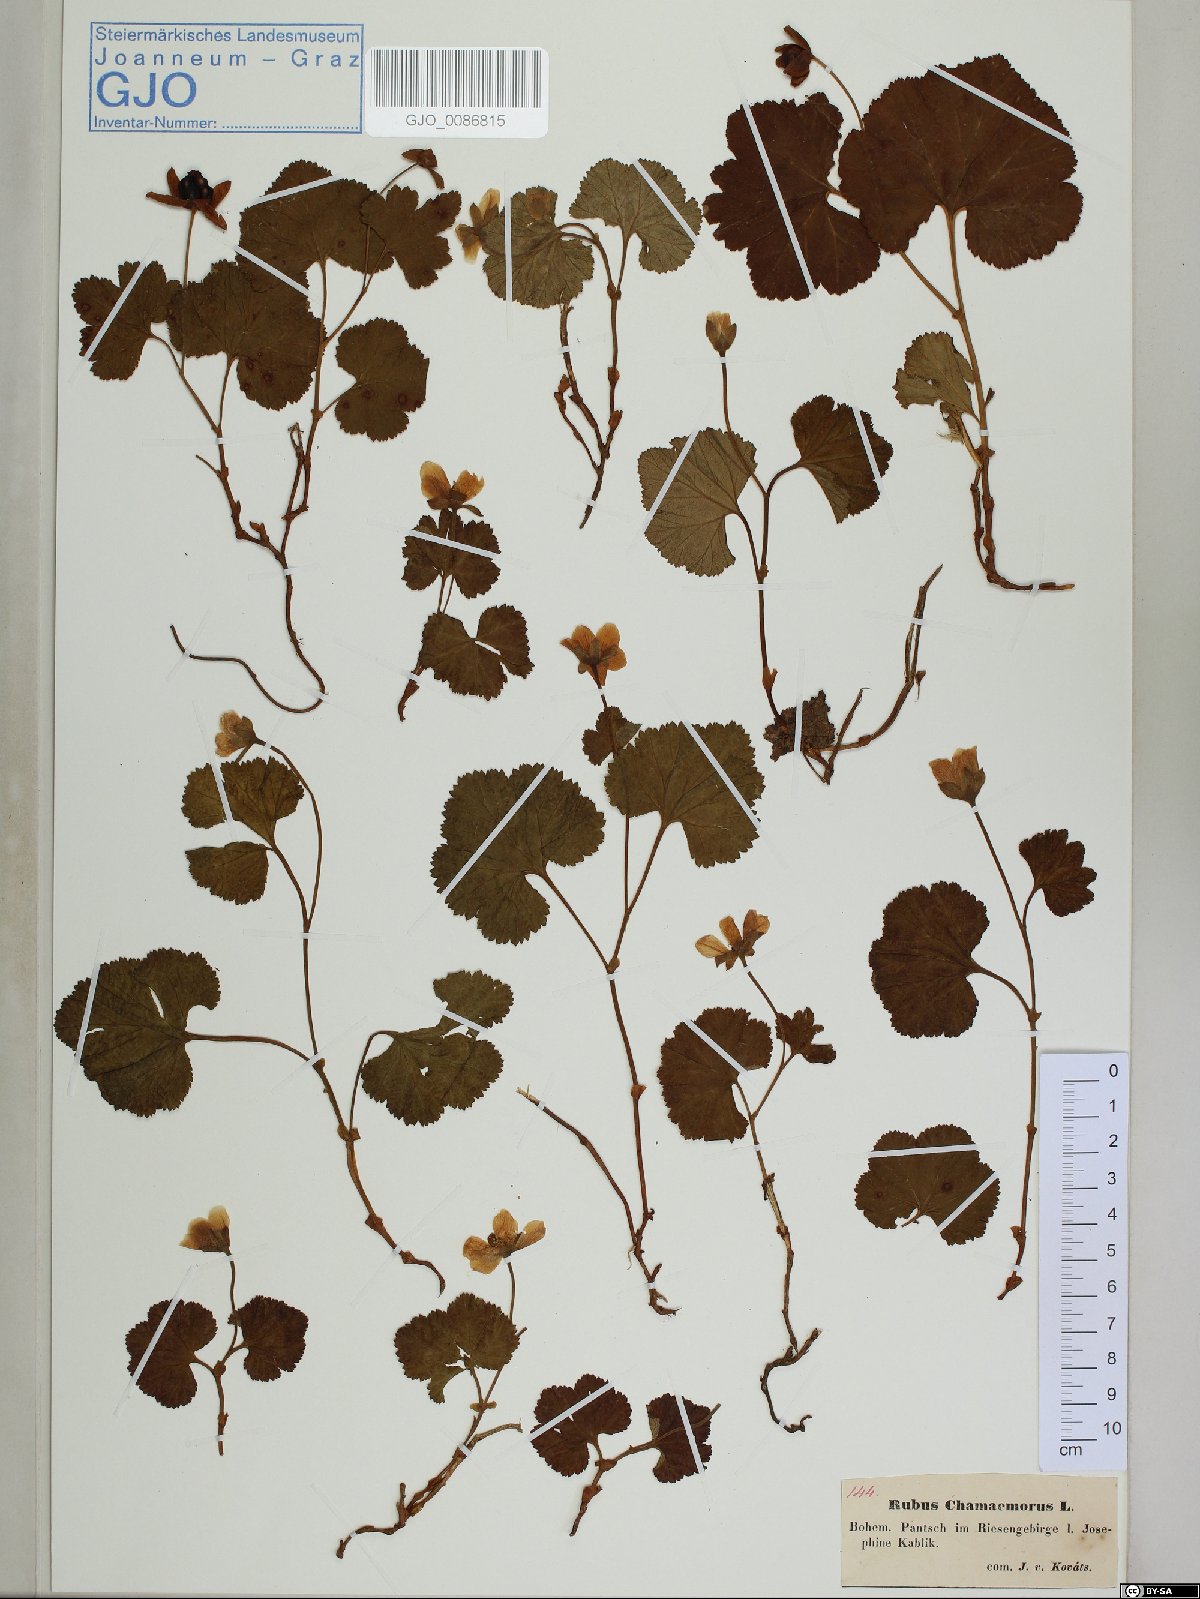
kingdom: Plantae
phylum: Tracheophyta
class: Magnoliopsida
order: Rosales
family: Rosaceae
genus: Rubus
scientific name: Rubus chamaemorus
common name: Cloudberry
